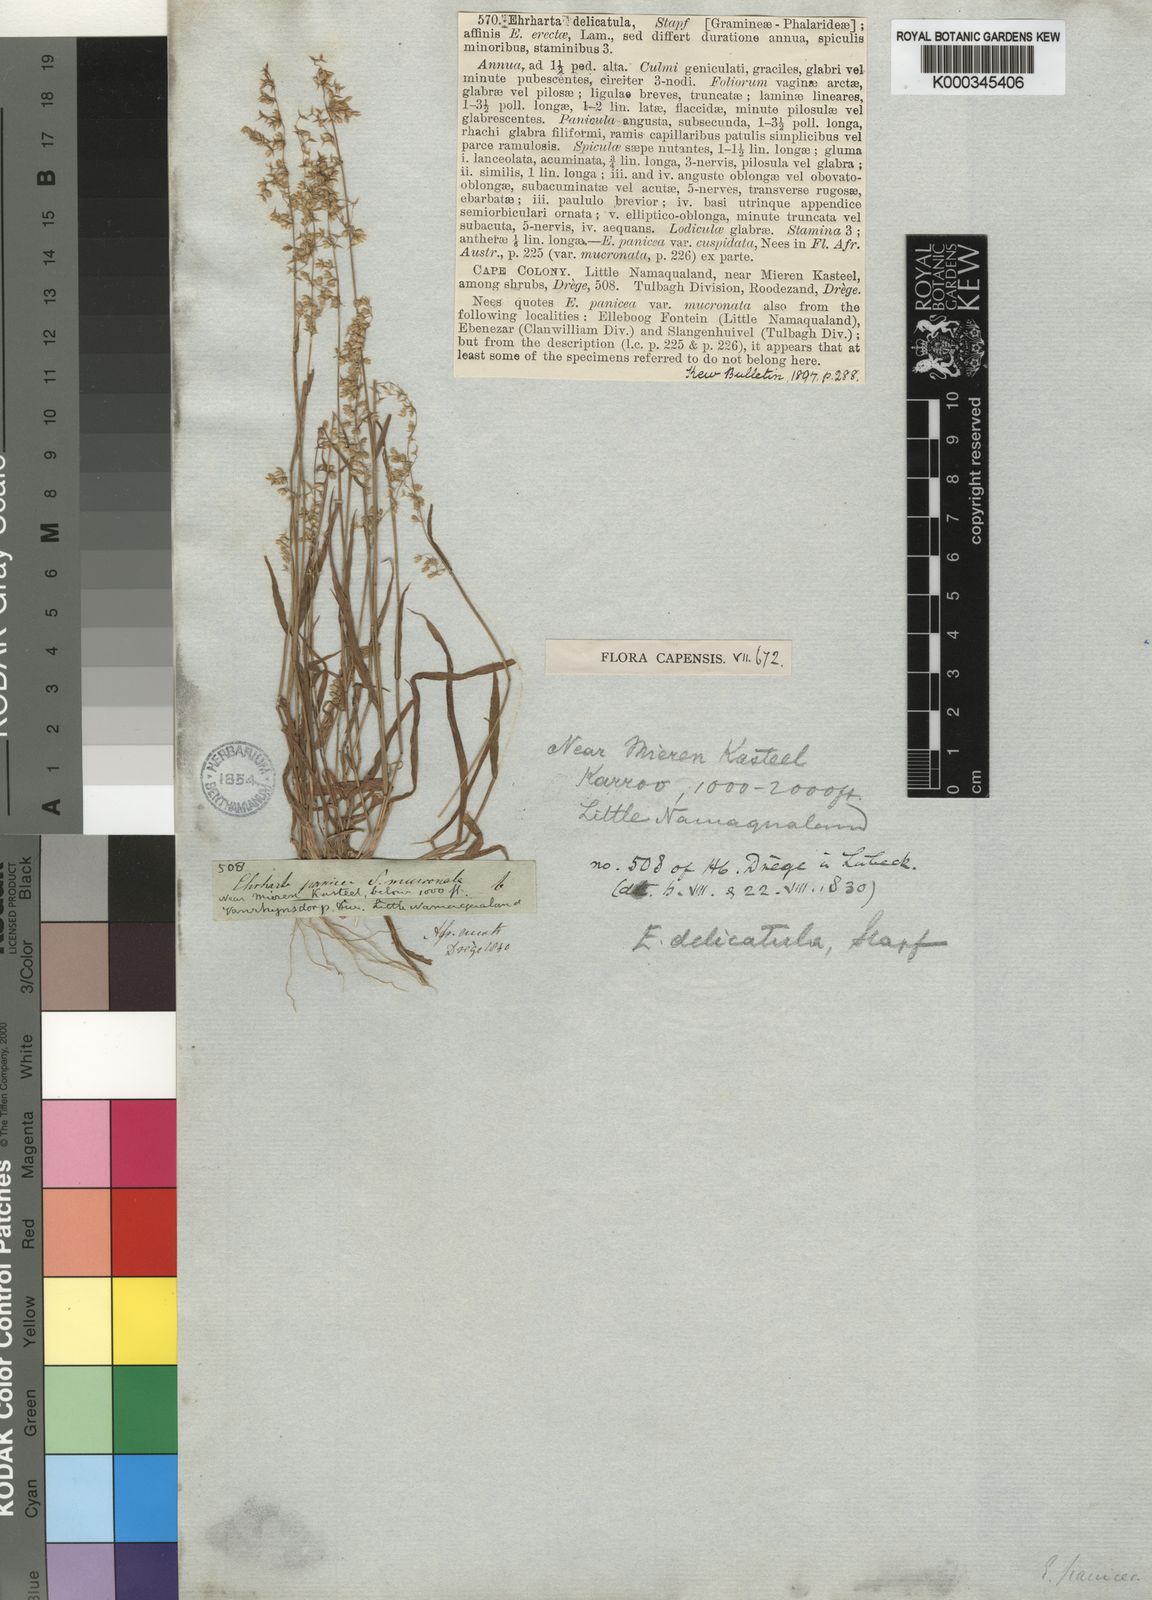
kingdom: Plantae
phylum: Tracheophyta
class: Liliopsida
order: Poales
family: Poaceae
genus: Ehrharta
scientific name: Ehrharta delicatula
